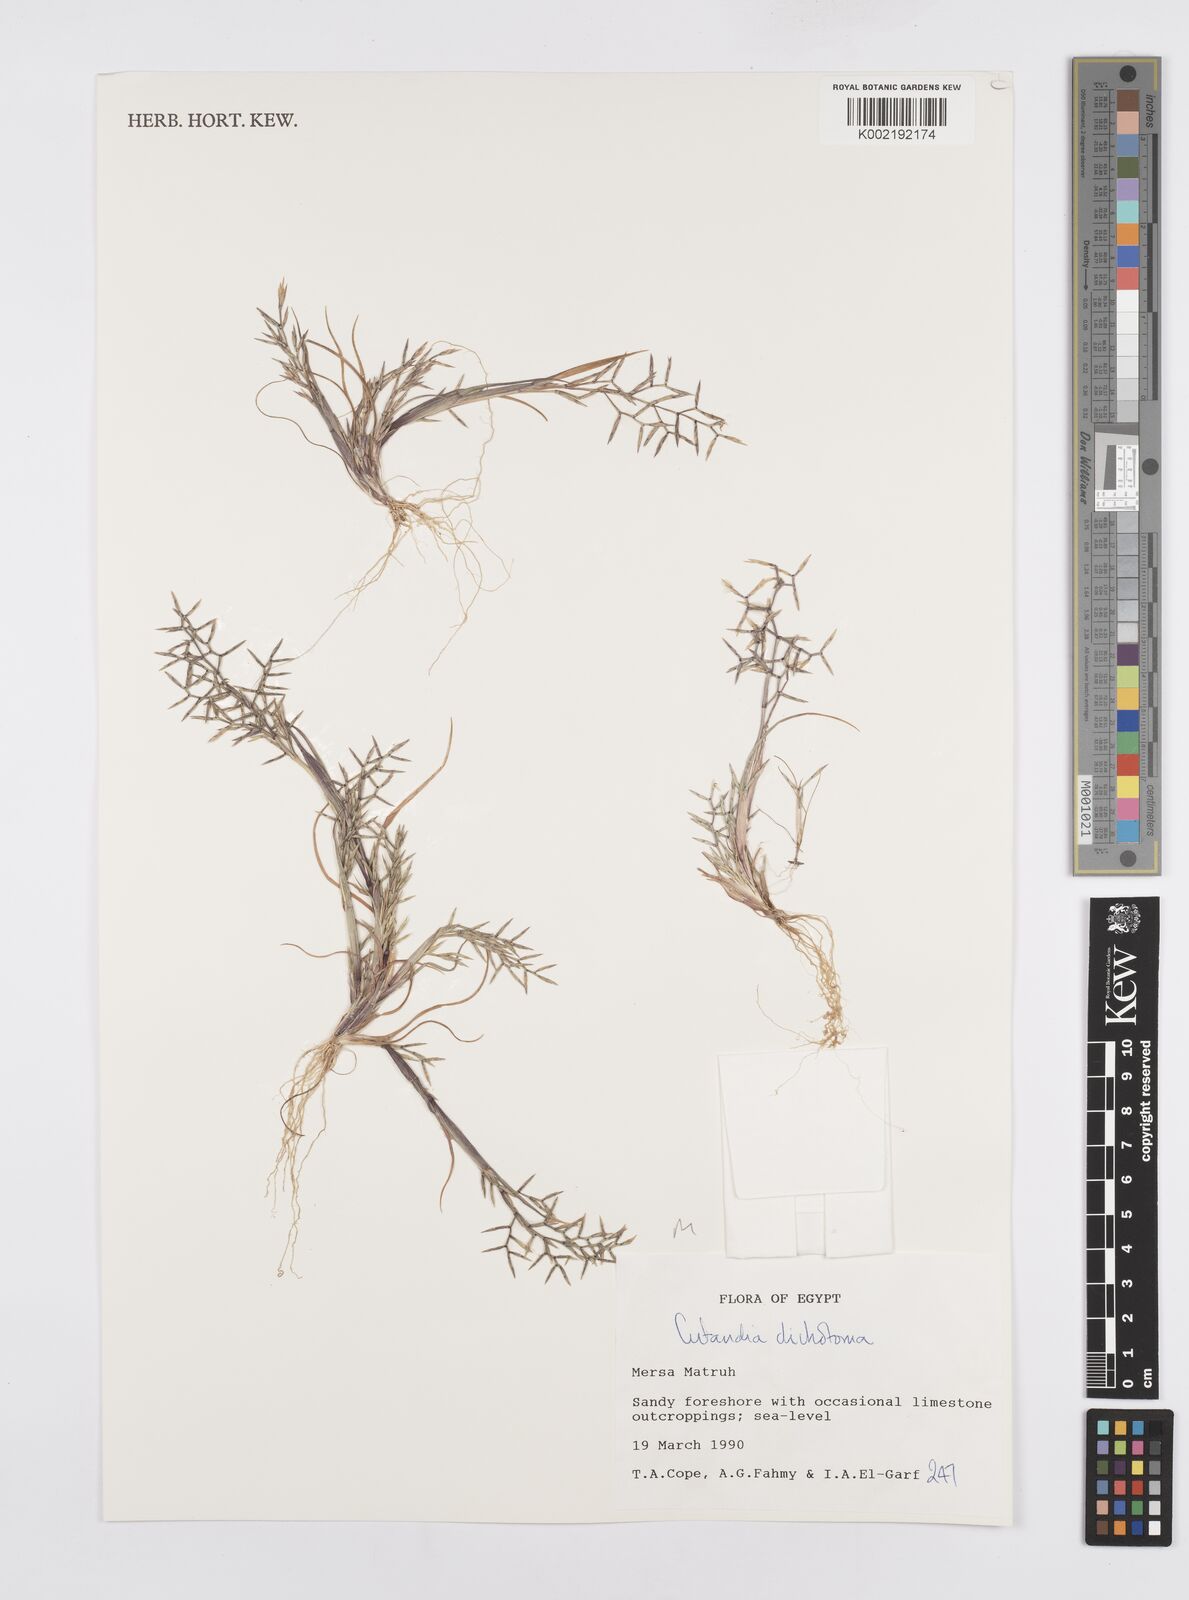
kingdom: Plantae
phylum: Tracheophyta
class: Liliopsida
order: Poales
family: Poaceae
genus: Cutandia
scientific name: Cutandia dichotoma
